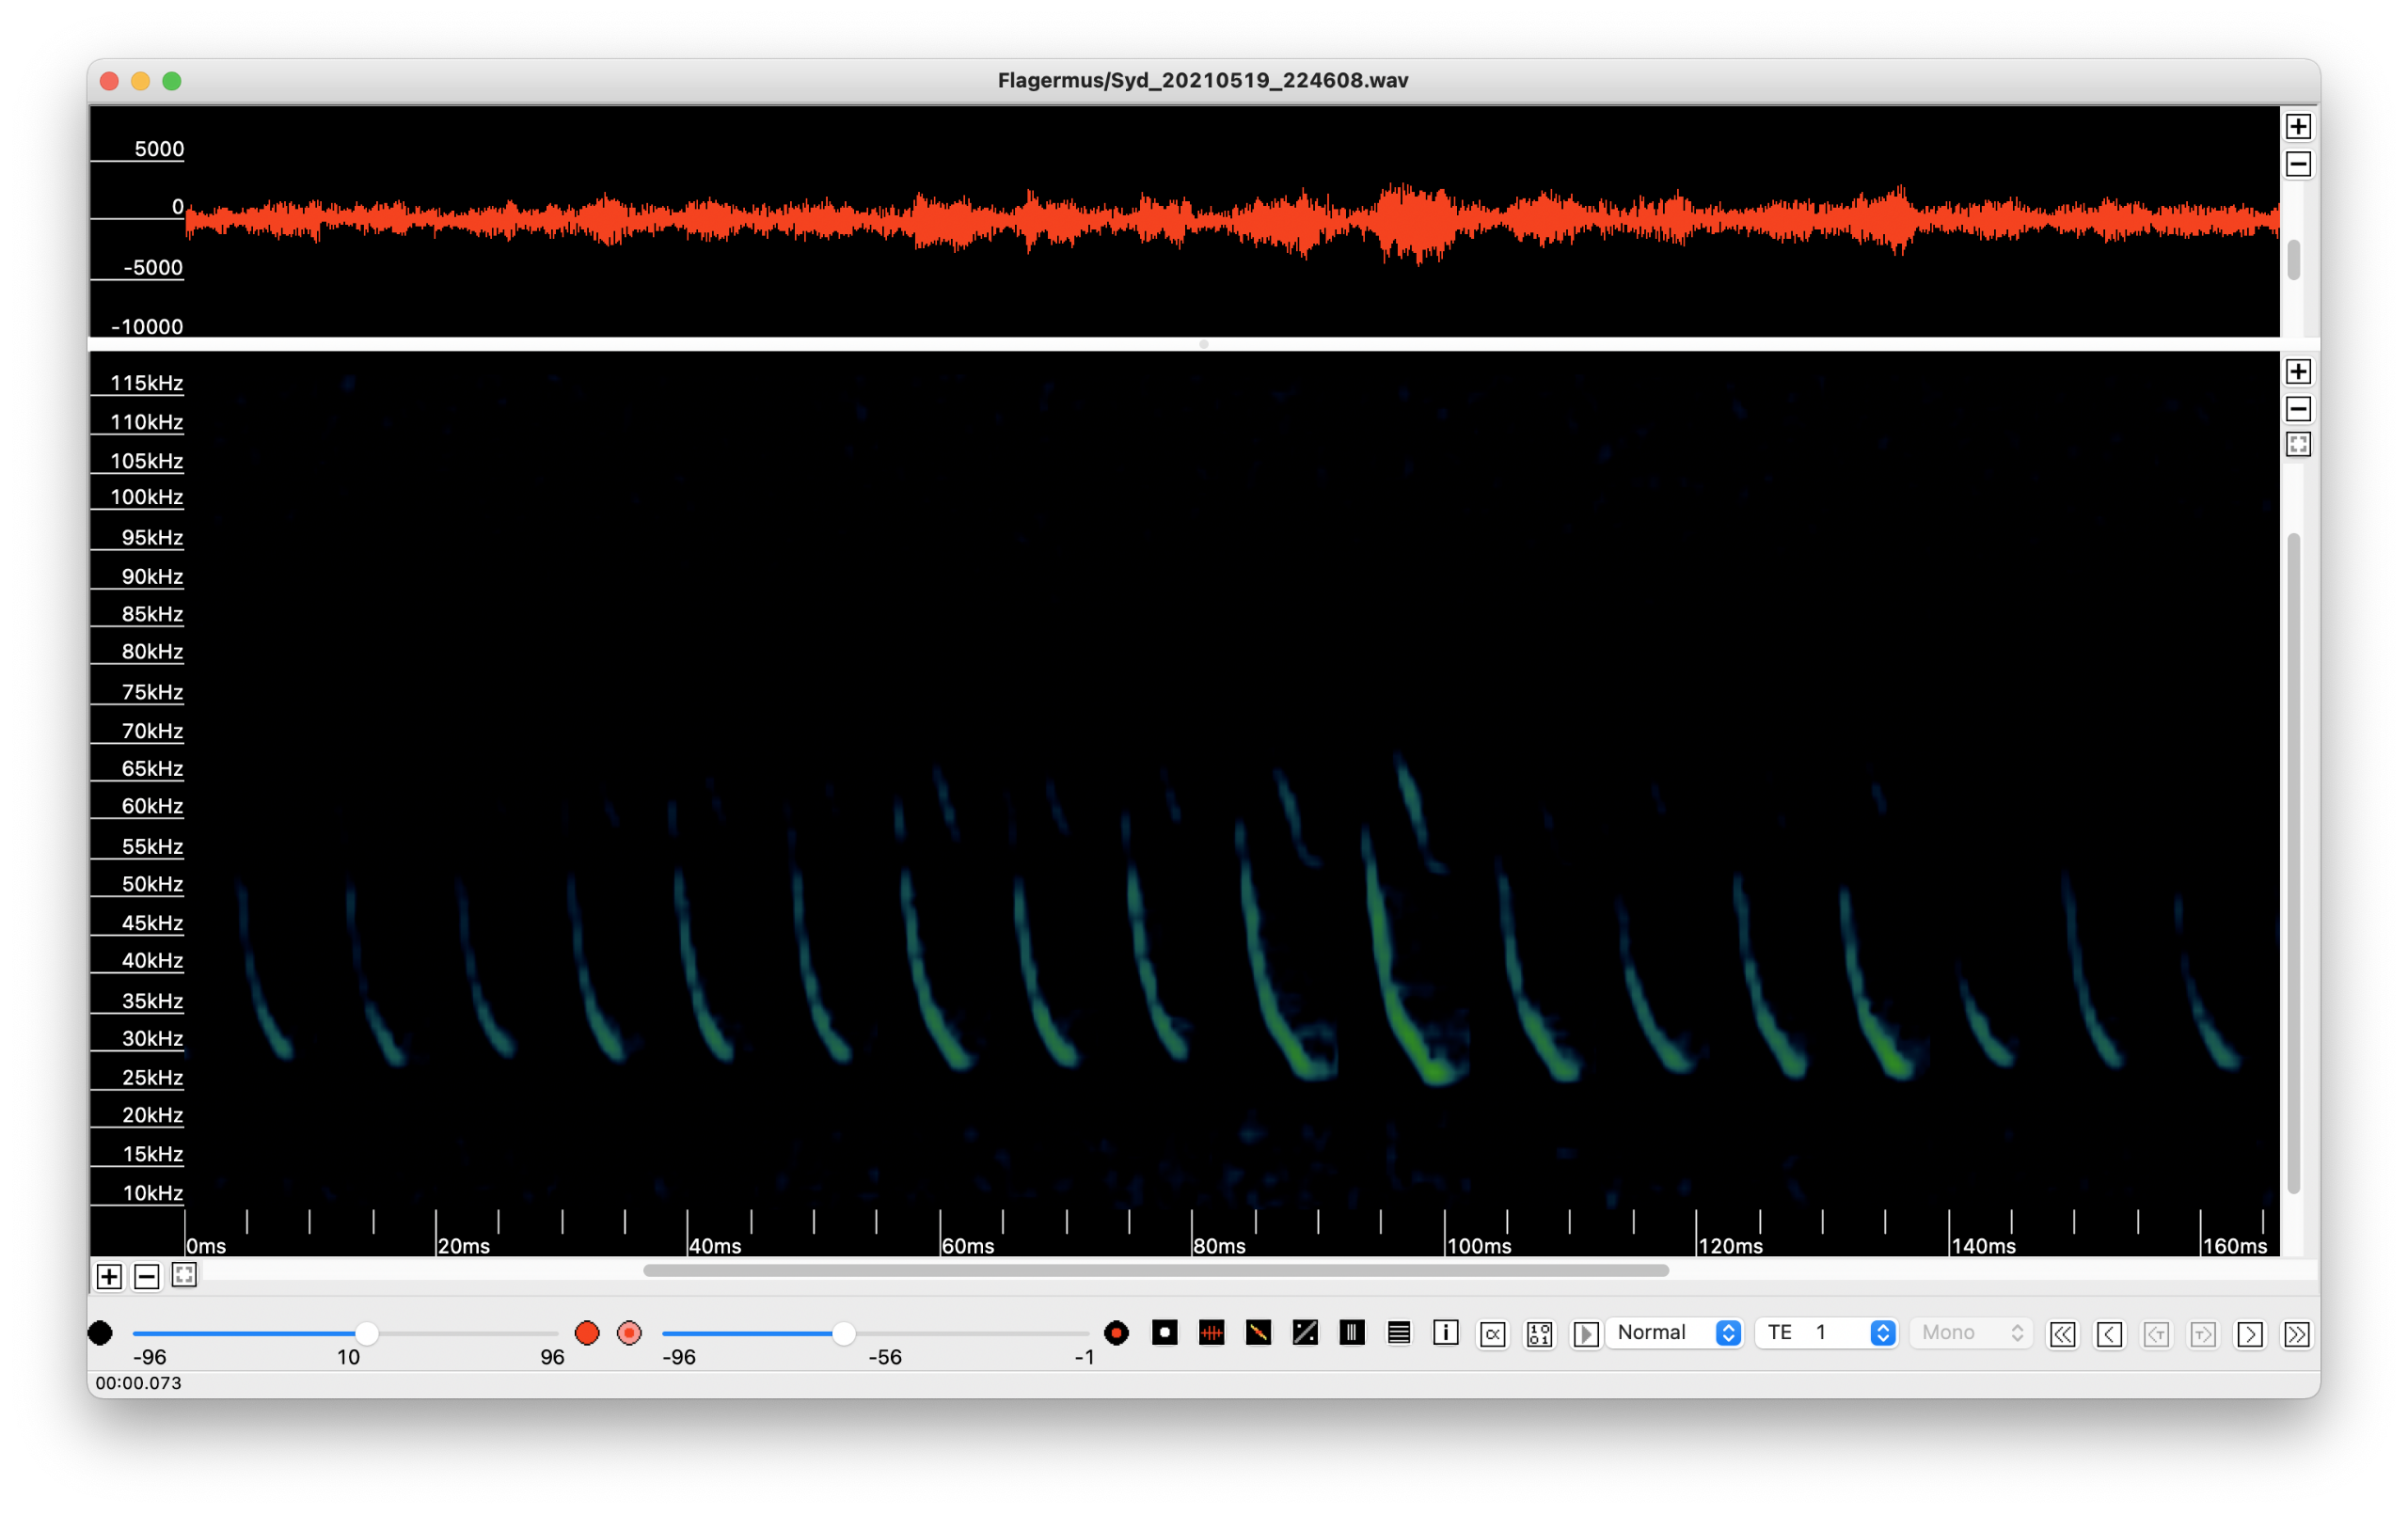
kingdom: Animalia
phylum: Chordata
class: Mammalia
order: Chiroptera
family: Vespertilionidae
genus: Eptesicus
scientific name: Eptesicus serotinus
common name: Sydflagermus
